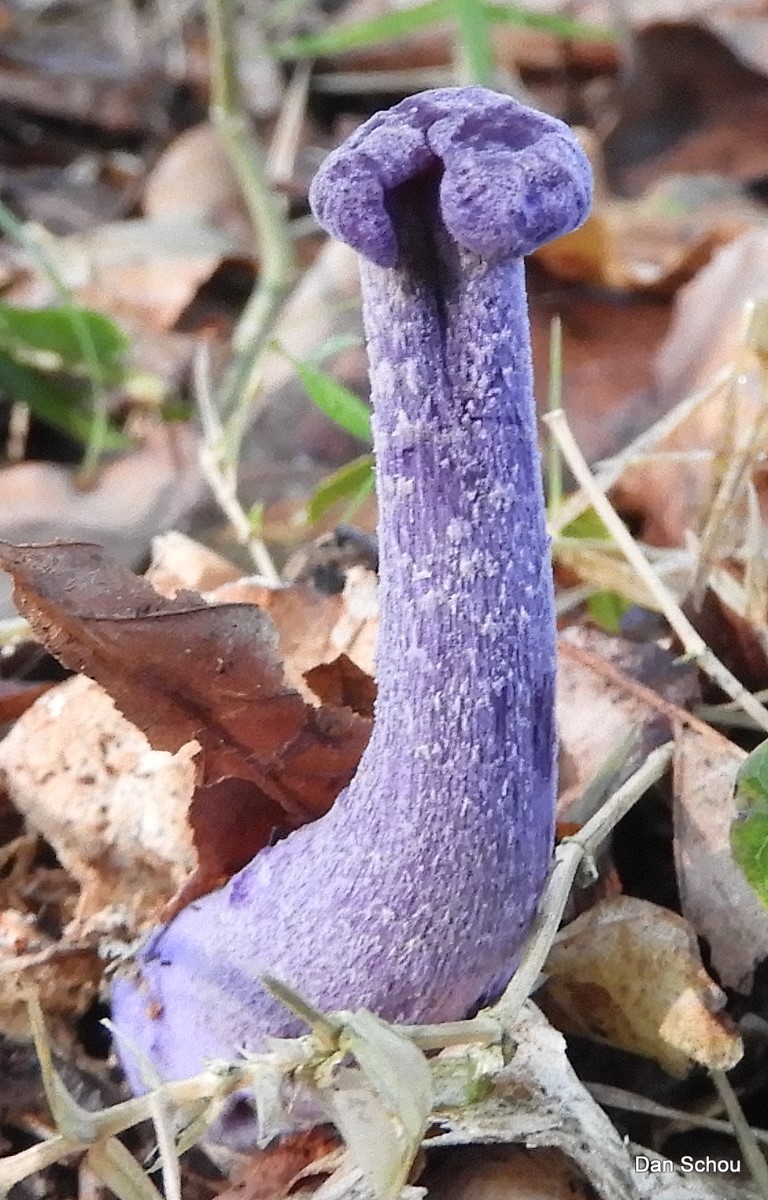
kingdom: Fungi
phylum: Basidiomycota
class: Agaricomycetes
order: Agaricales
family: Hydnangiaceae
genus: Laccaria
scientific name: Laccaria amethystina
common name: violet ametysthat
